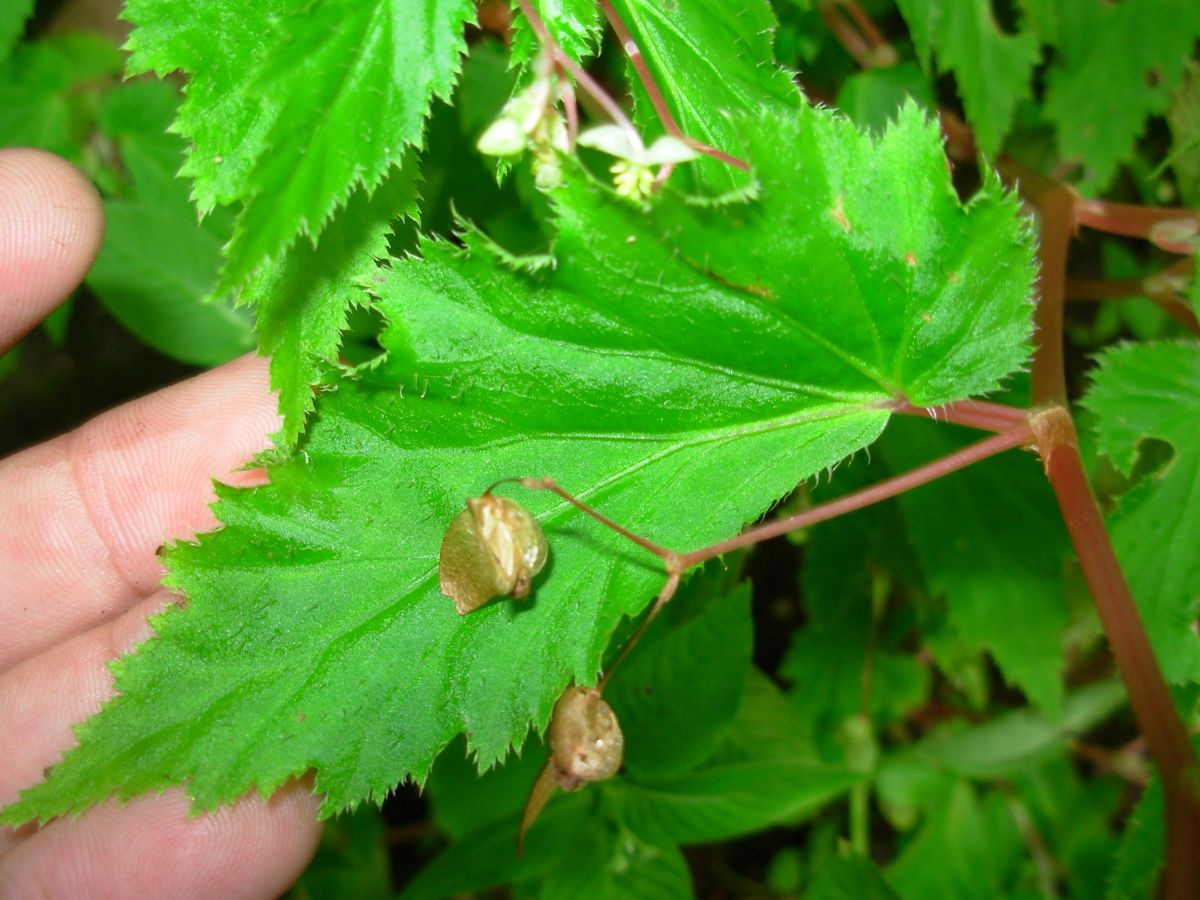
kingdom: Plantae
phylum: Tracheophyta
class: Magnoliopsida
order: Cucurbitales
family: Begoniaceae
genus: Begonia
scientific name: Begonia humilis
